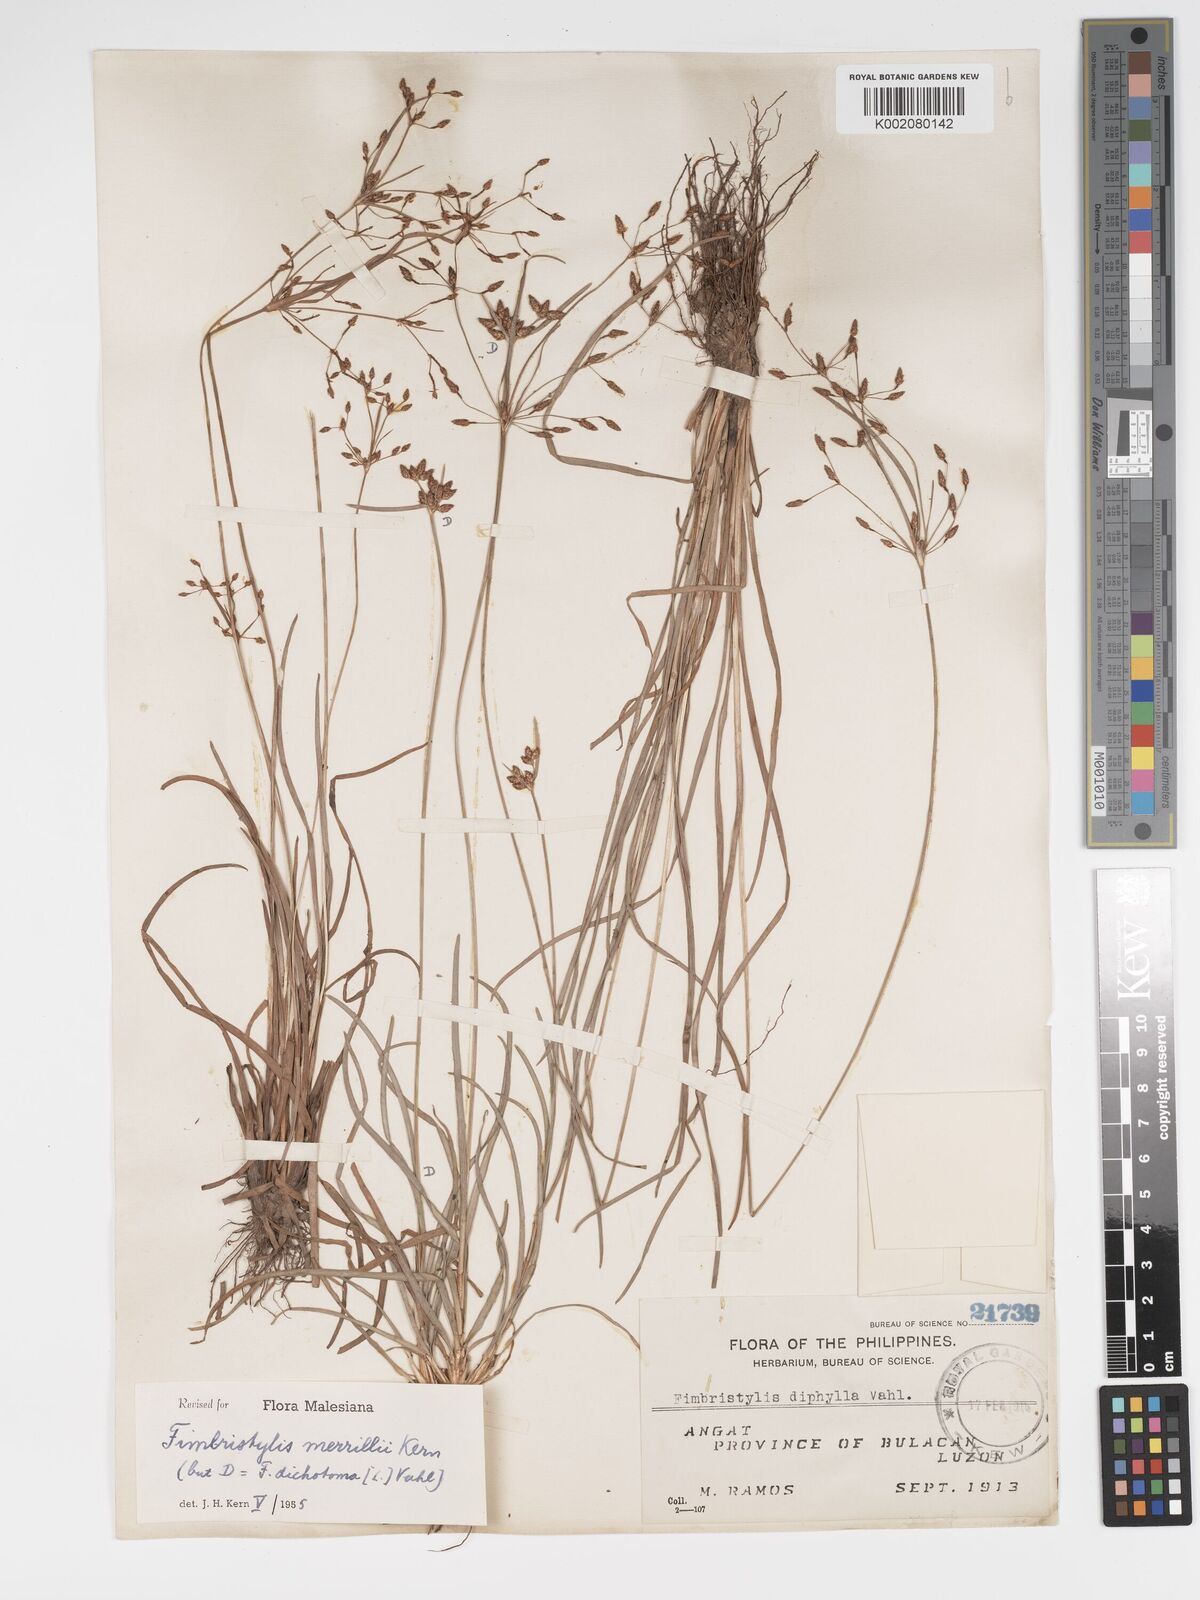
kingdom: Plantae
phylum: Tracheophyta
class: Liliopsida
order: Poales
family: Cyperaceae
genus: Fimbristylis
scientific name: Fimbristylis merrillii
